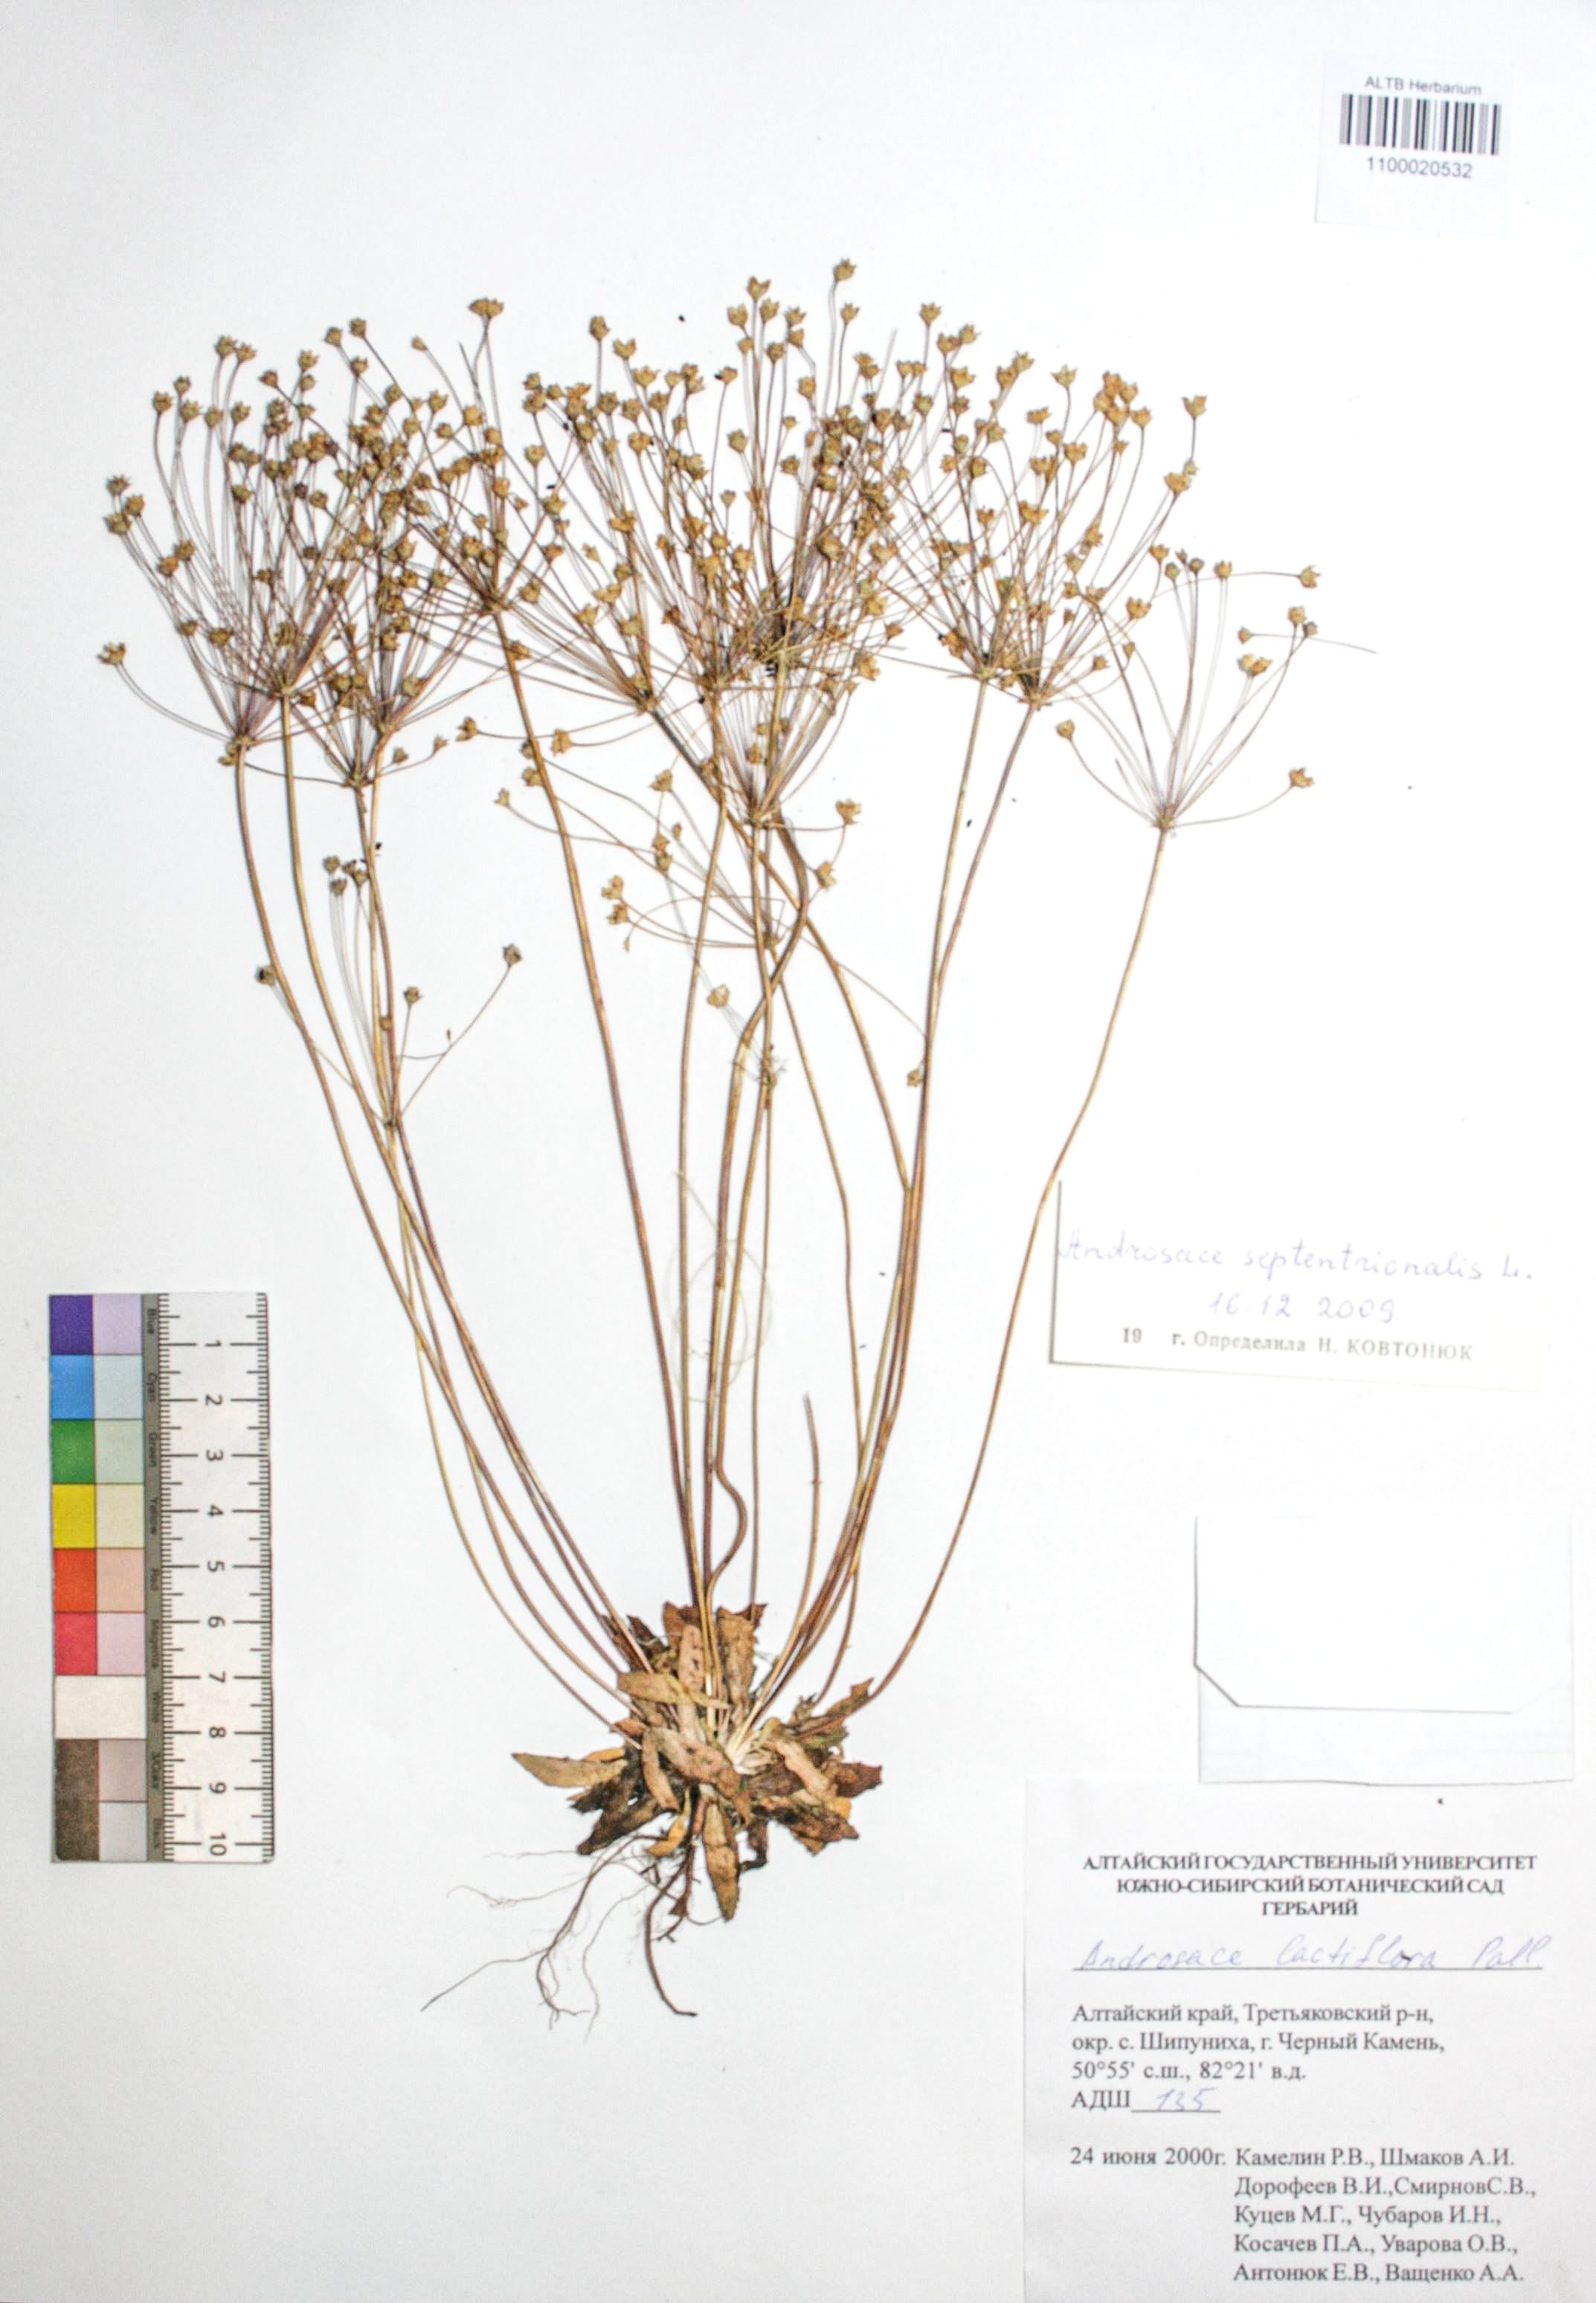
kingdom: Plantae
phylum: Tracheophyta
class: Magnoliopsida
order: Ericales
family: Primulaceae
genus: Androsace
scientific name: Androsace septentrionalis
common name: Hairy northern fairy-candelabra
